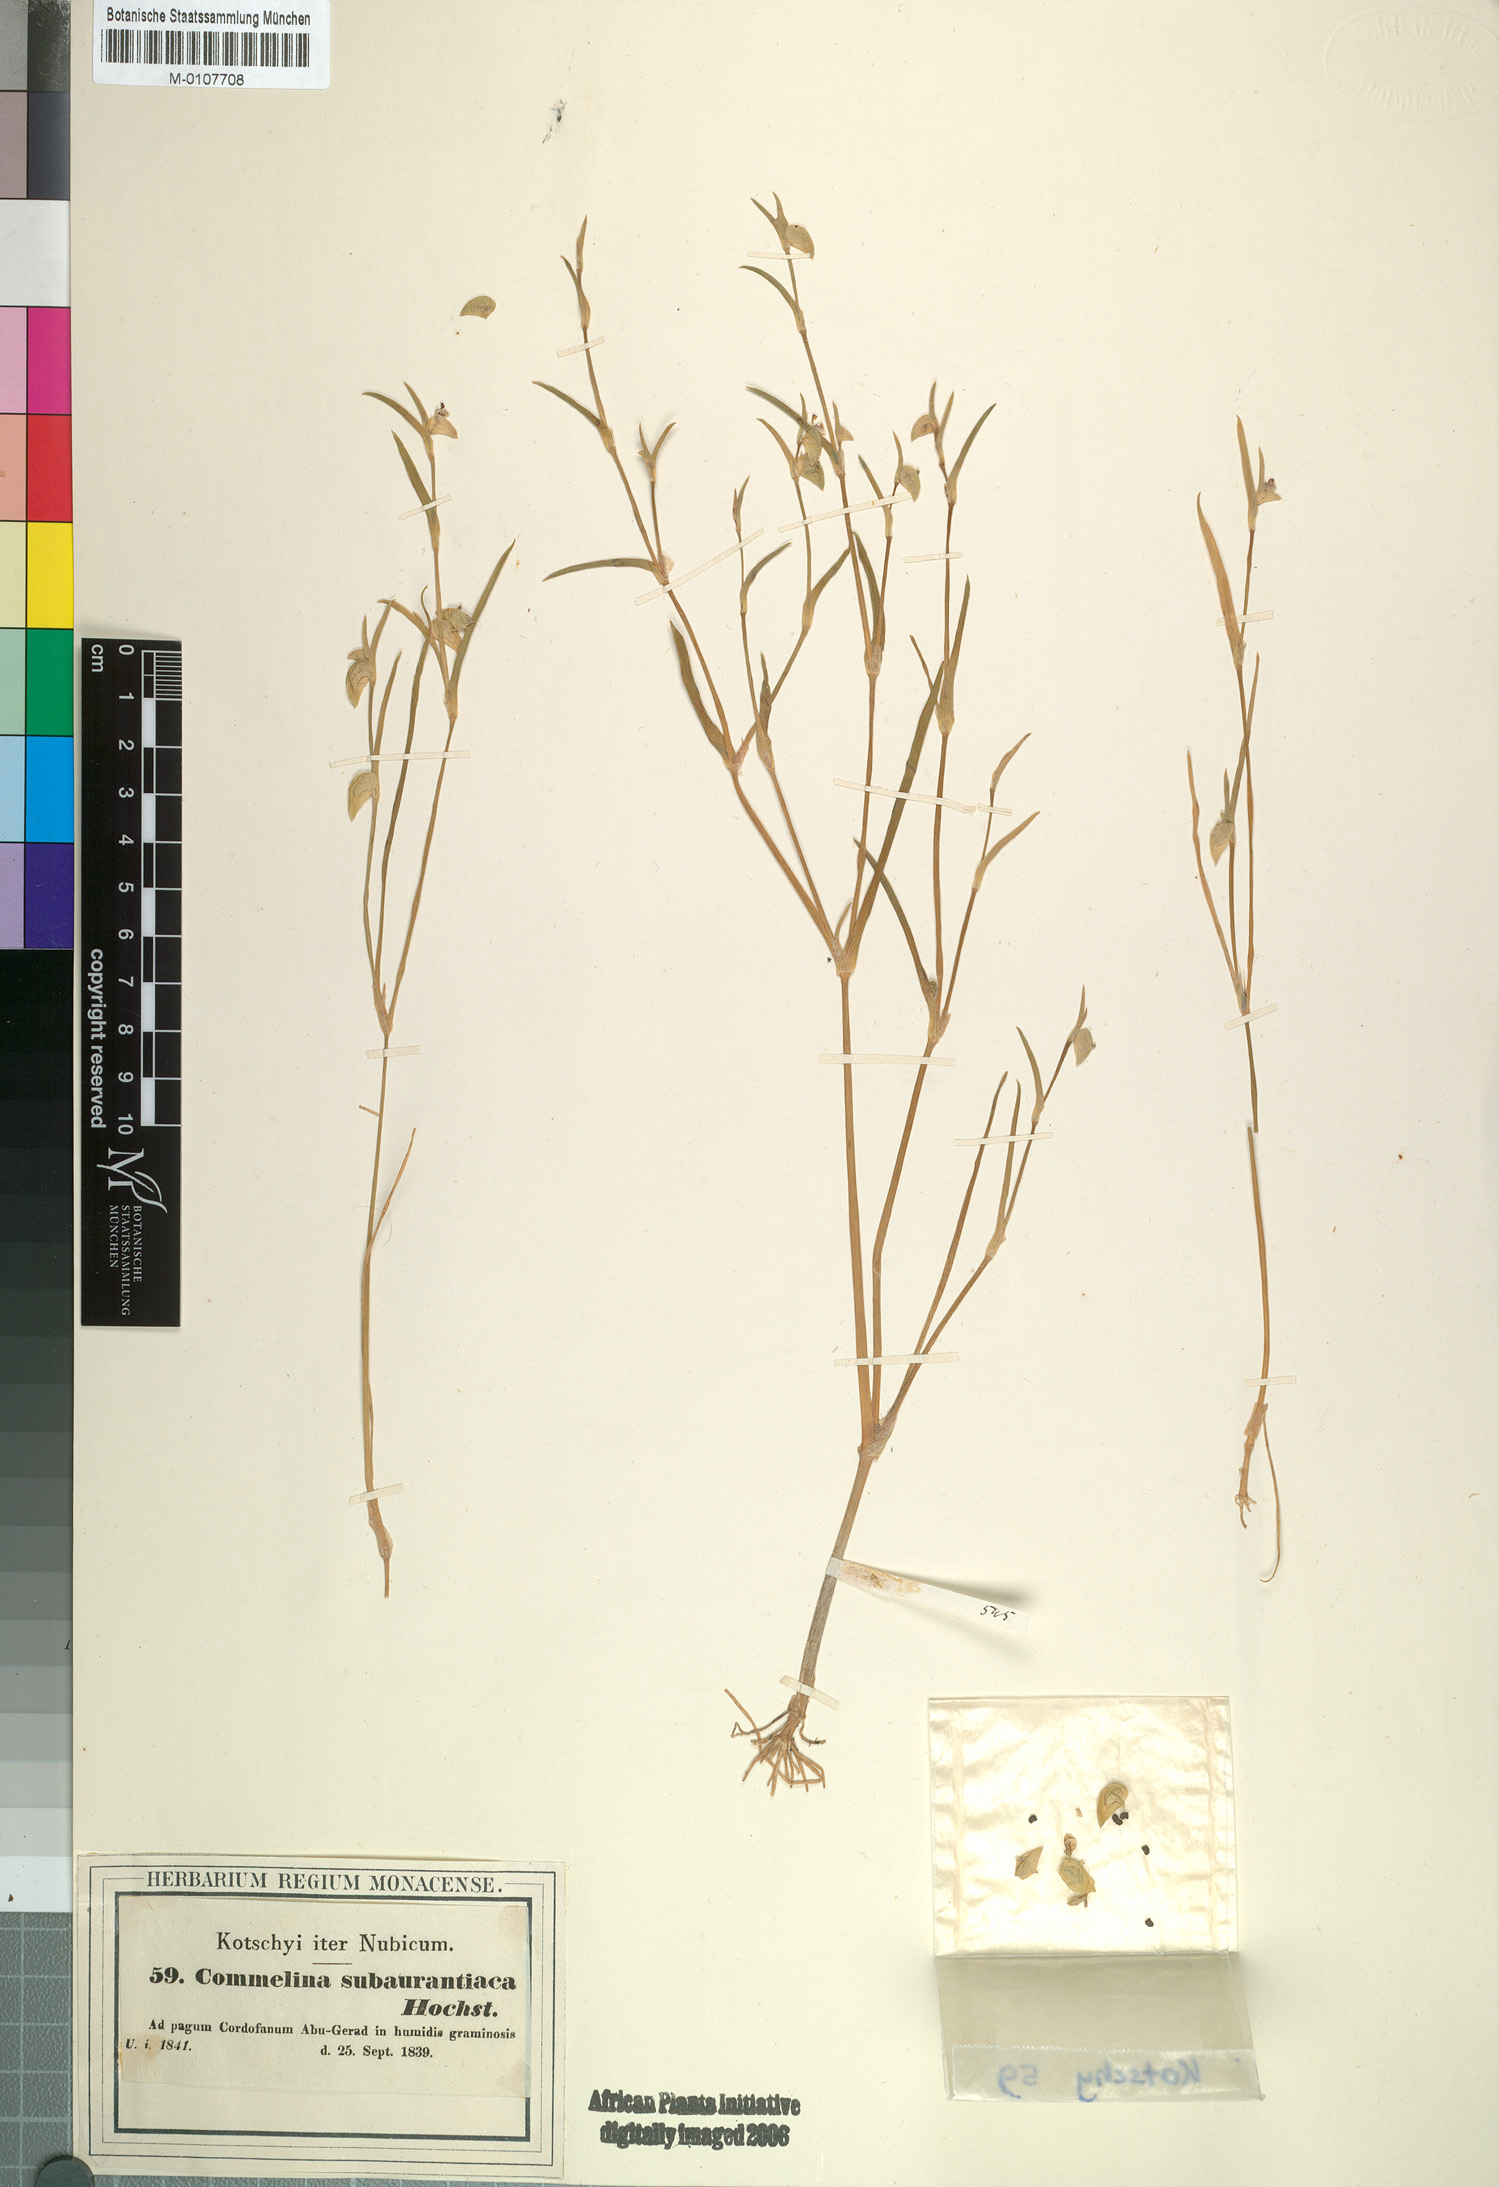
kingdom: Plantae
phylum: Tracheophyta
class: Liliopsida
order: Commelinales
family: Commelinaceae
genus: Commelina
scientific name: Commelina subulata
